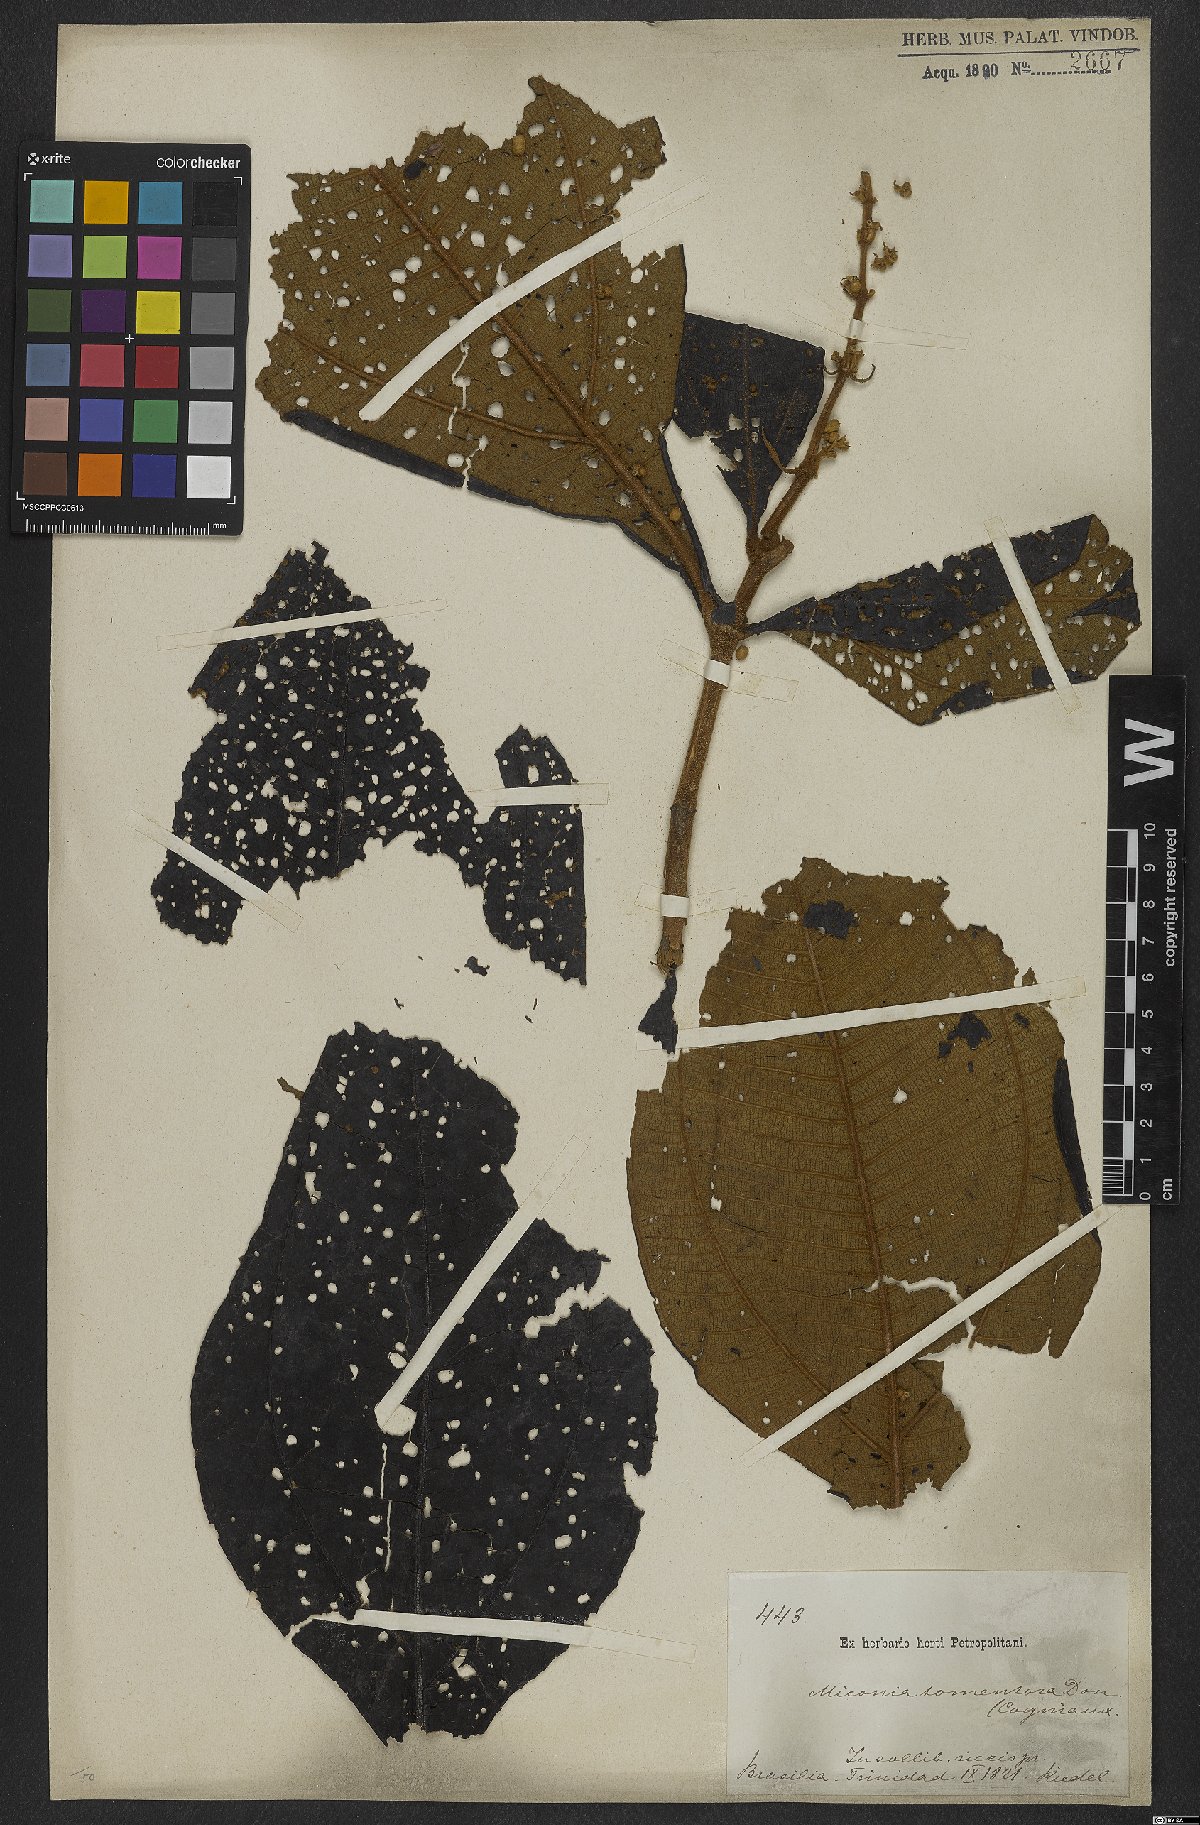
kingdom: Plantae
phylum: Tracheophyta
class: Magnoliopsida
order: Myrtales
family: Melastomataceae
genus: Miconia
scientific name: Miconia tomentosa
